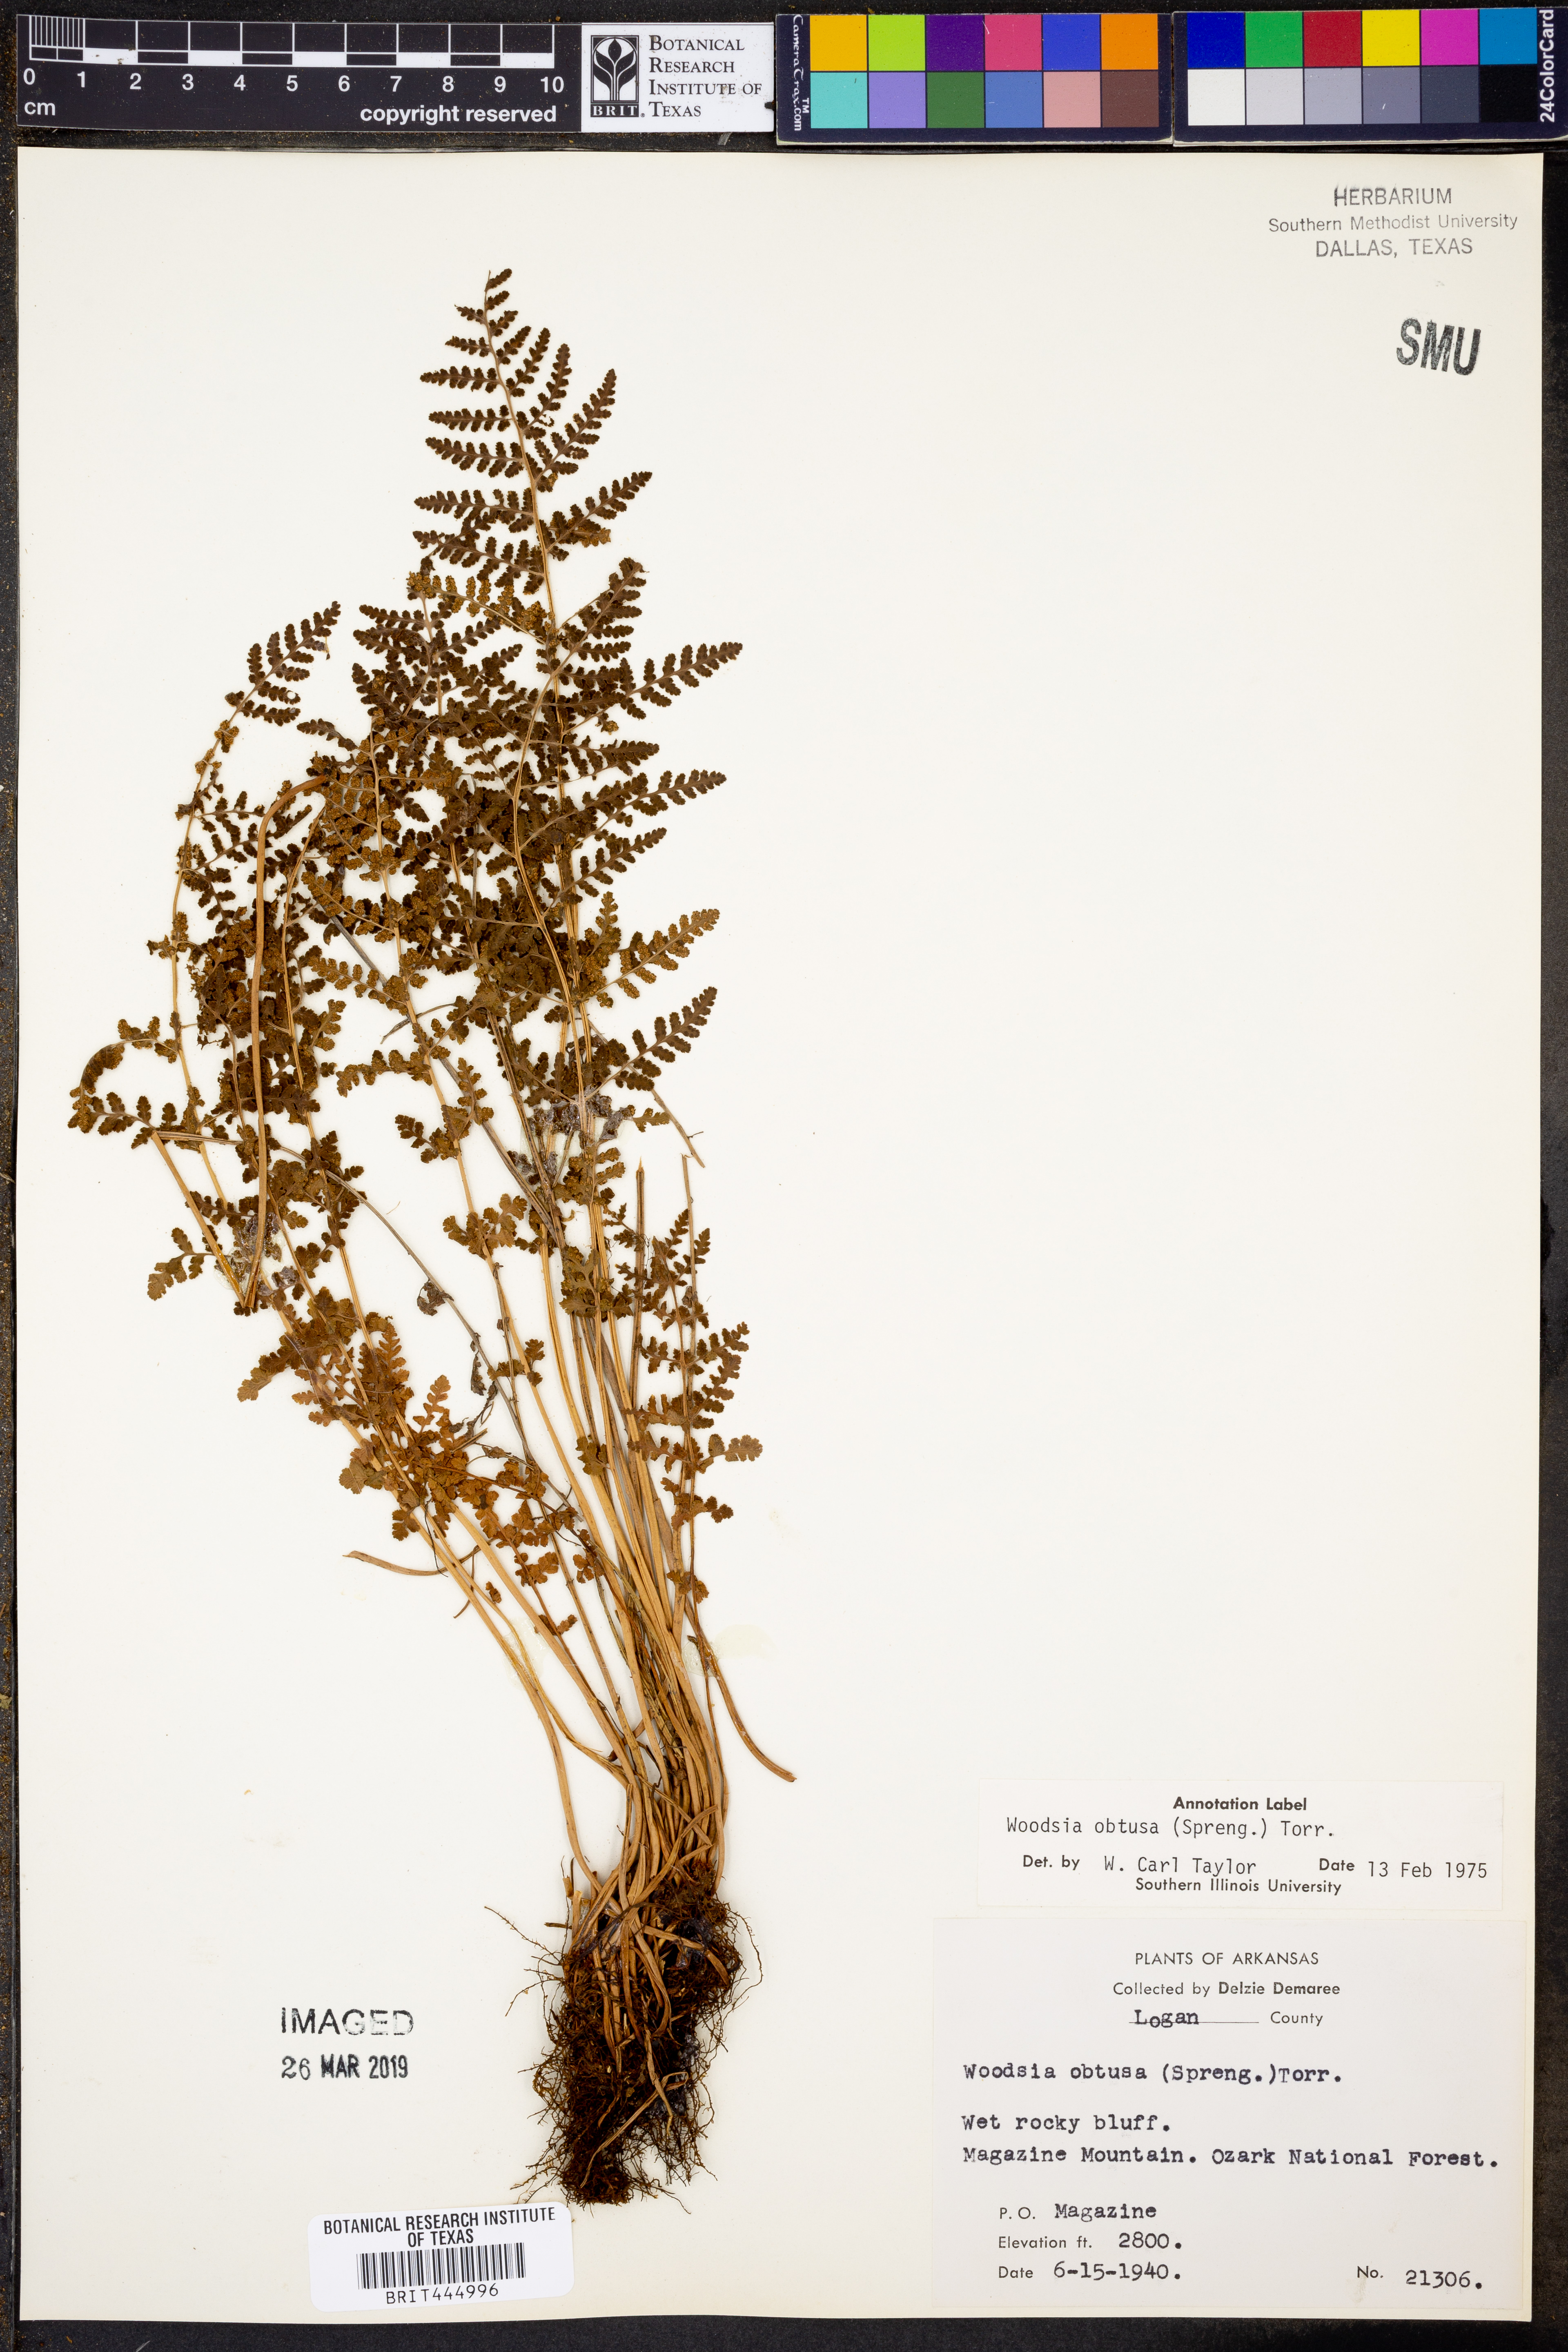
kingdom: Plantae
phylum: Tracheophyta
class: Polypodiopsida
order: Polypodiales
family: Woodsiaceae
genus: Physematium
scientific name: Physematium obtusum
